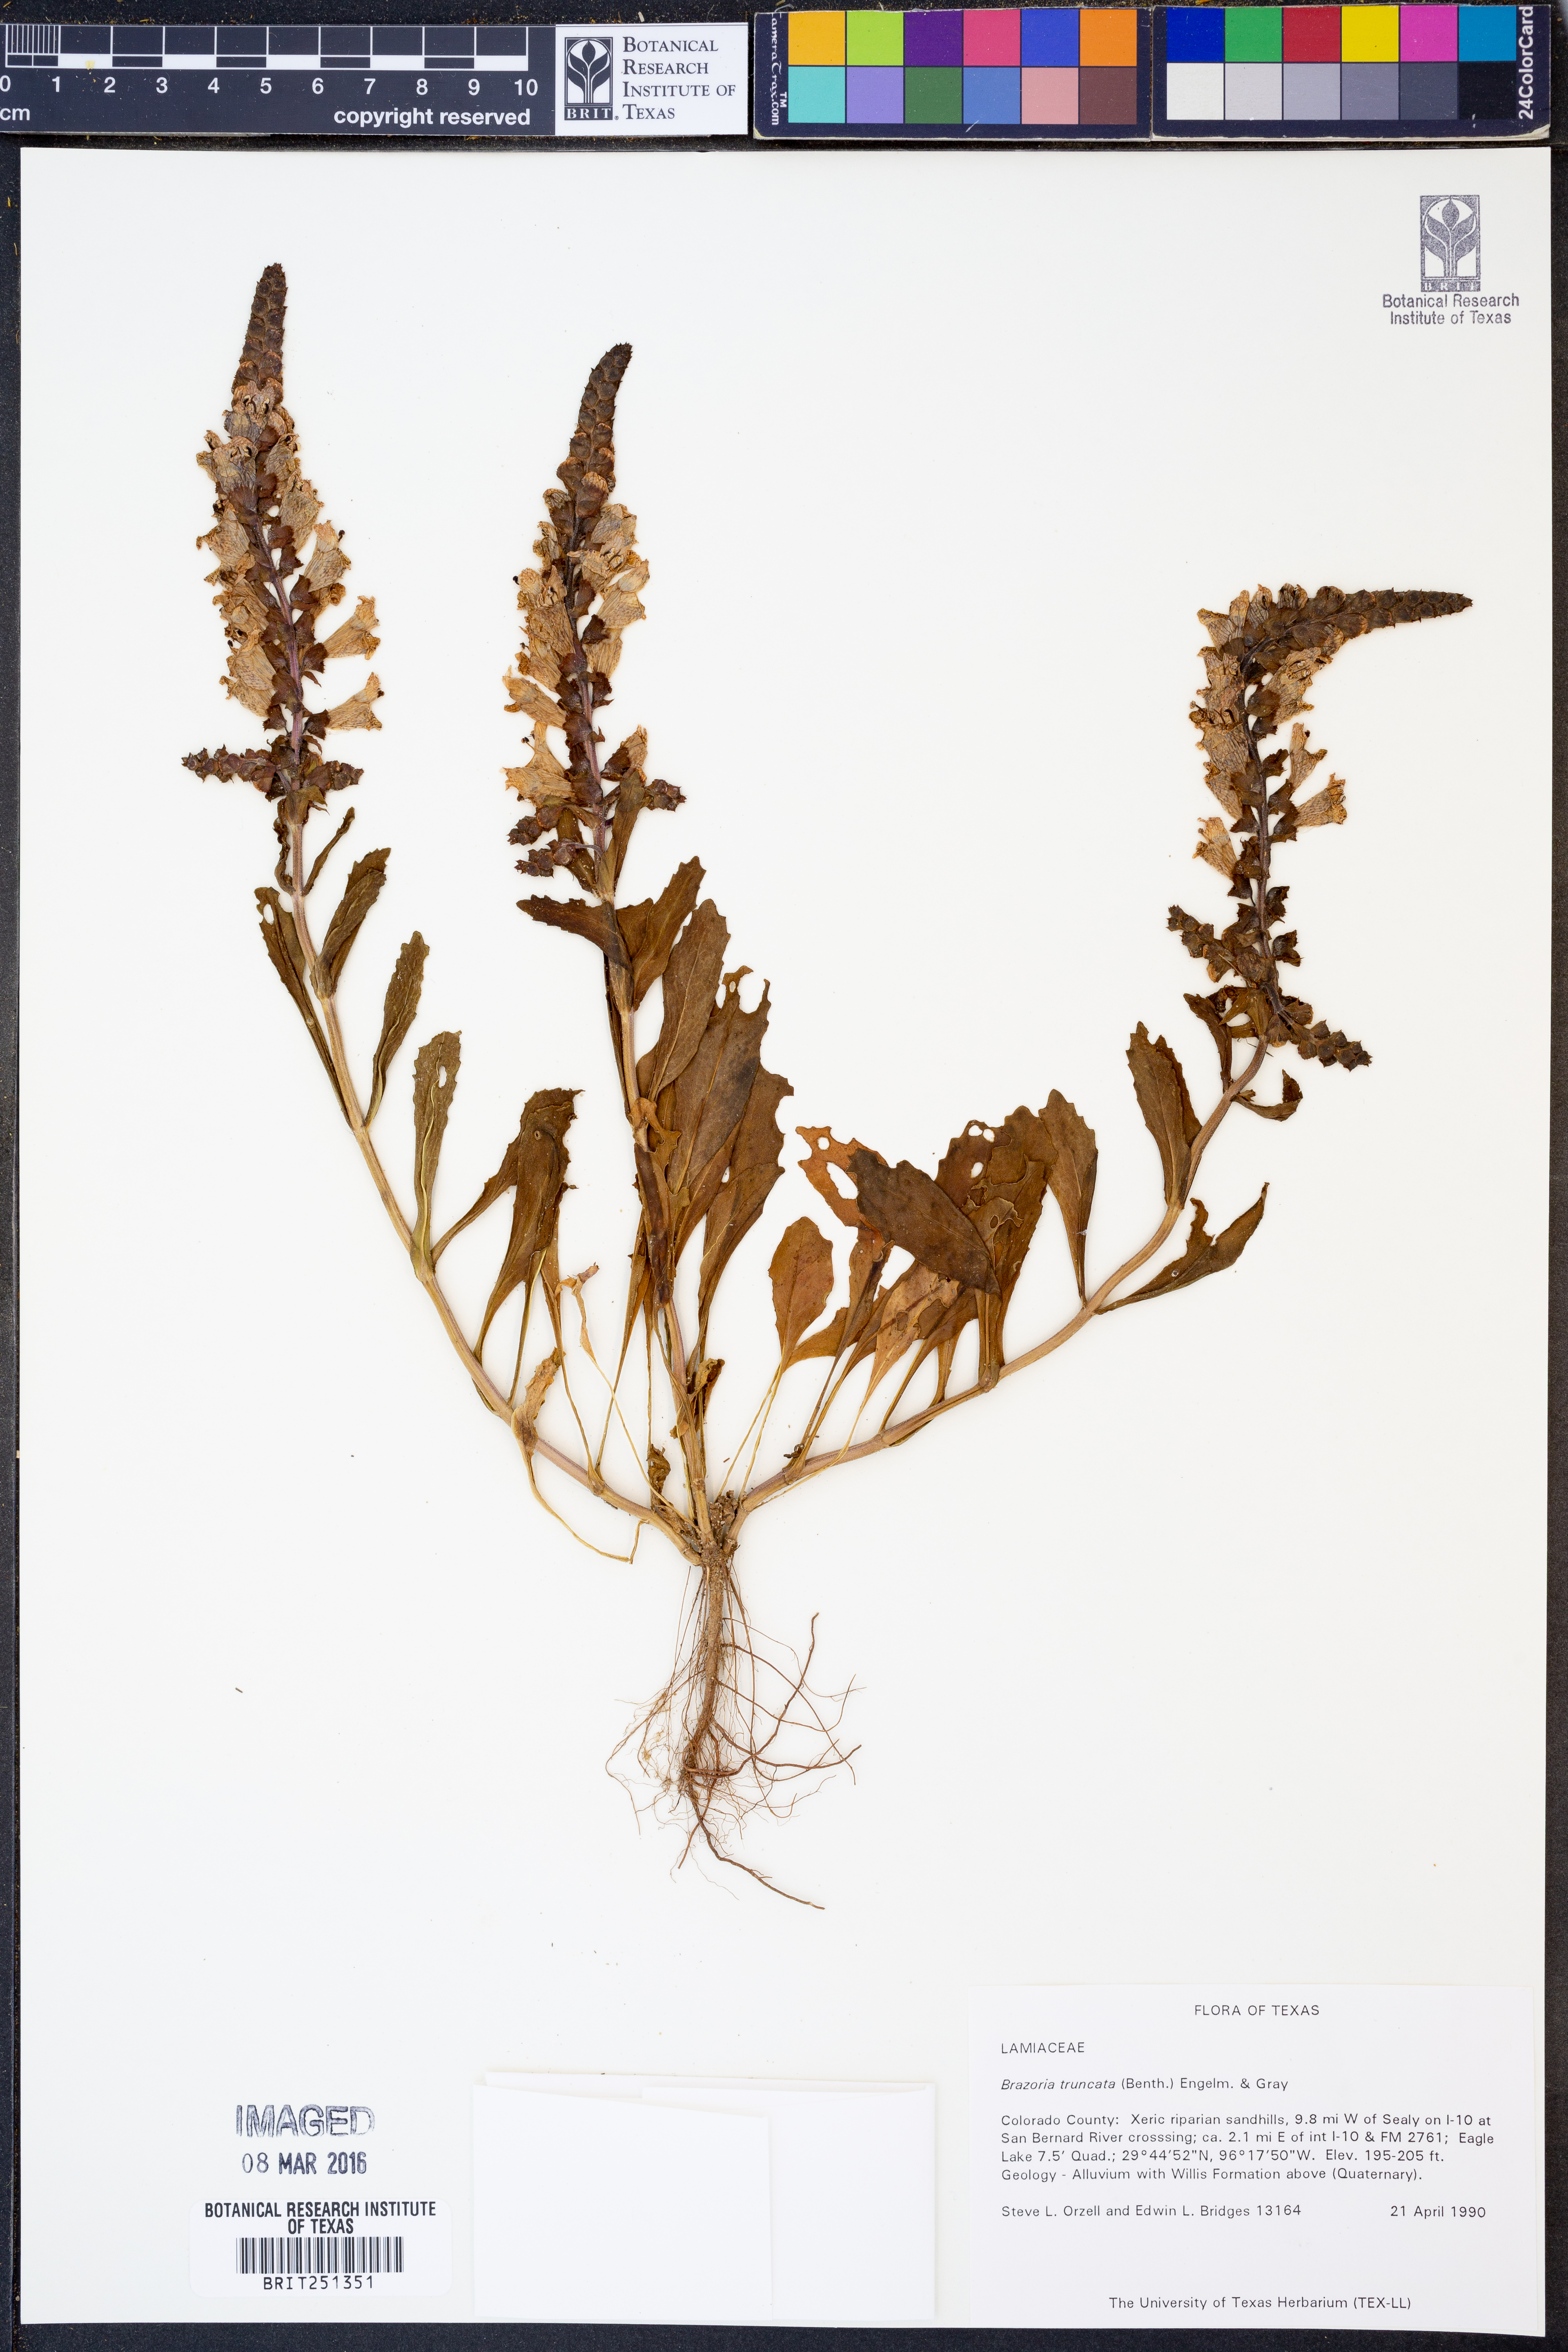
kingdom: Plantae
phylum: Tracheophyta
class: Magnoliopsida
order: Lamiales
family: Lamiaceae
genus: Brazoria
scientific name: Brazoria truncata
